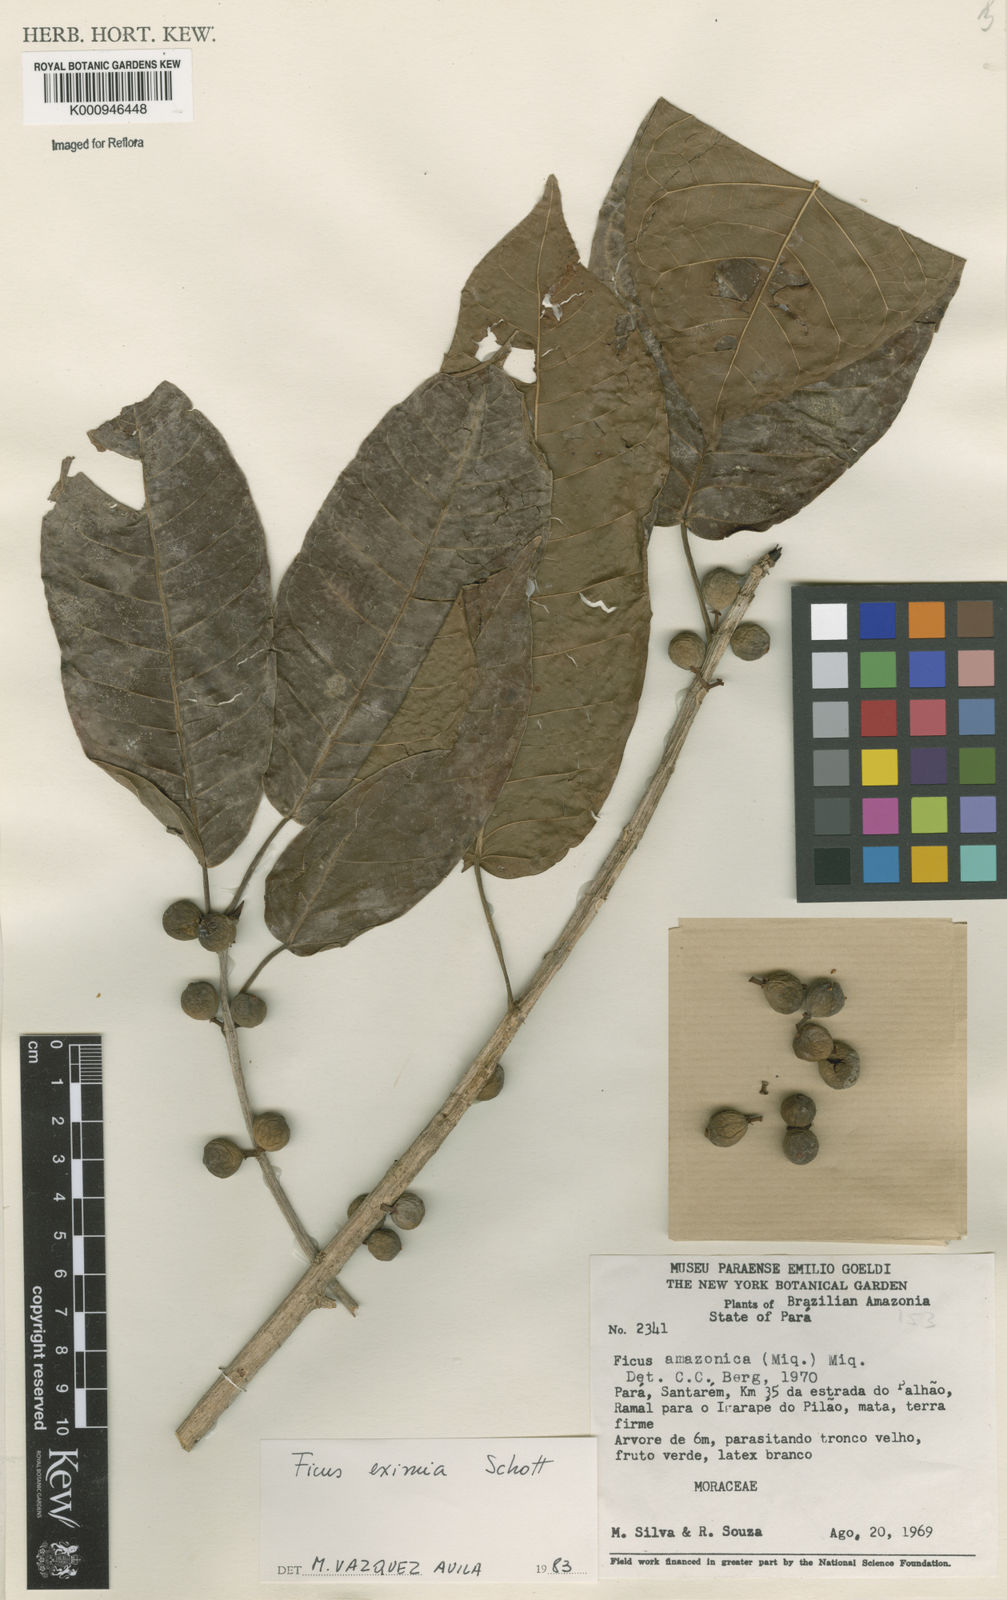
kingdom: Plantae
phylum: Tracheophyta
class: Magnoliopsida
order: Rosales
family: Moraceae
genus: Ficus
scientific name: Ficus amazonica
